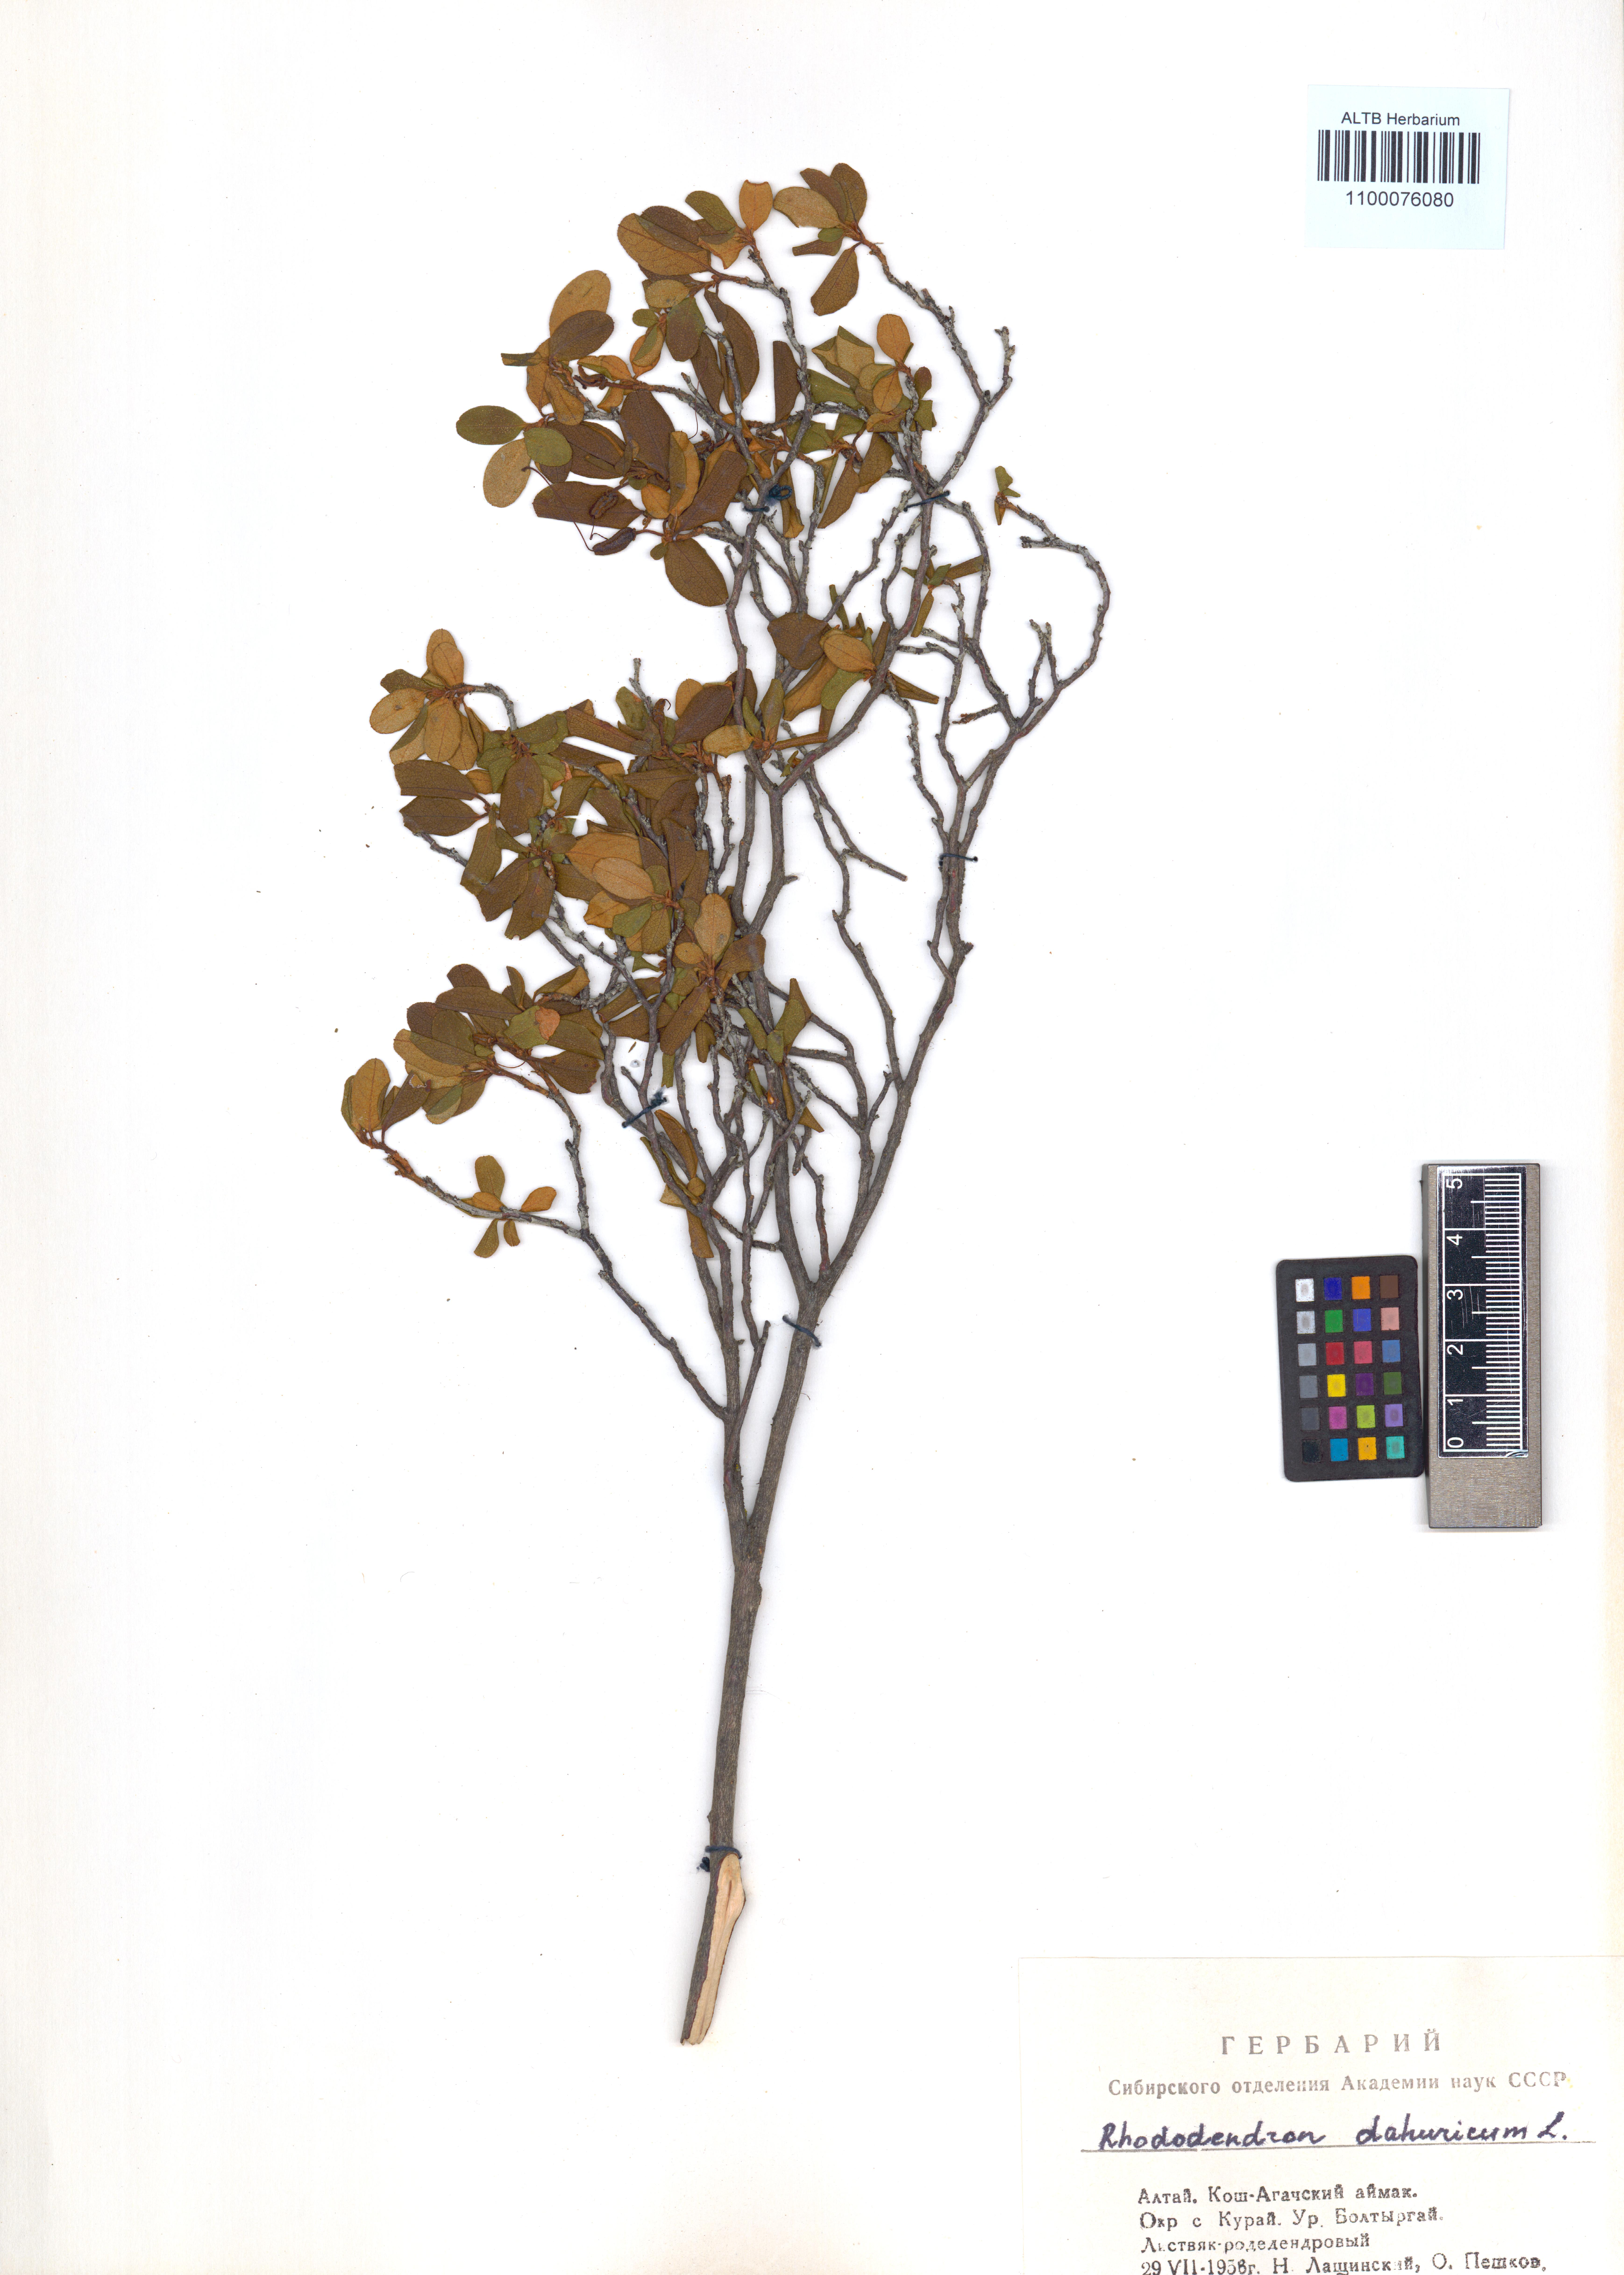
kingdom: Plantae
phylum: Tracheophyta
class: Magnoliopsida
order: Ericales
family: Ericaceae
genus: Rhododendron
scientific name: Rhododendron dauricum
